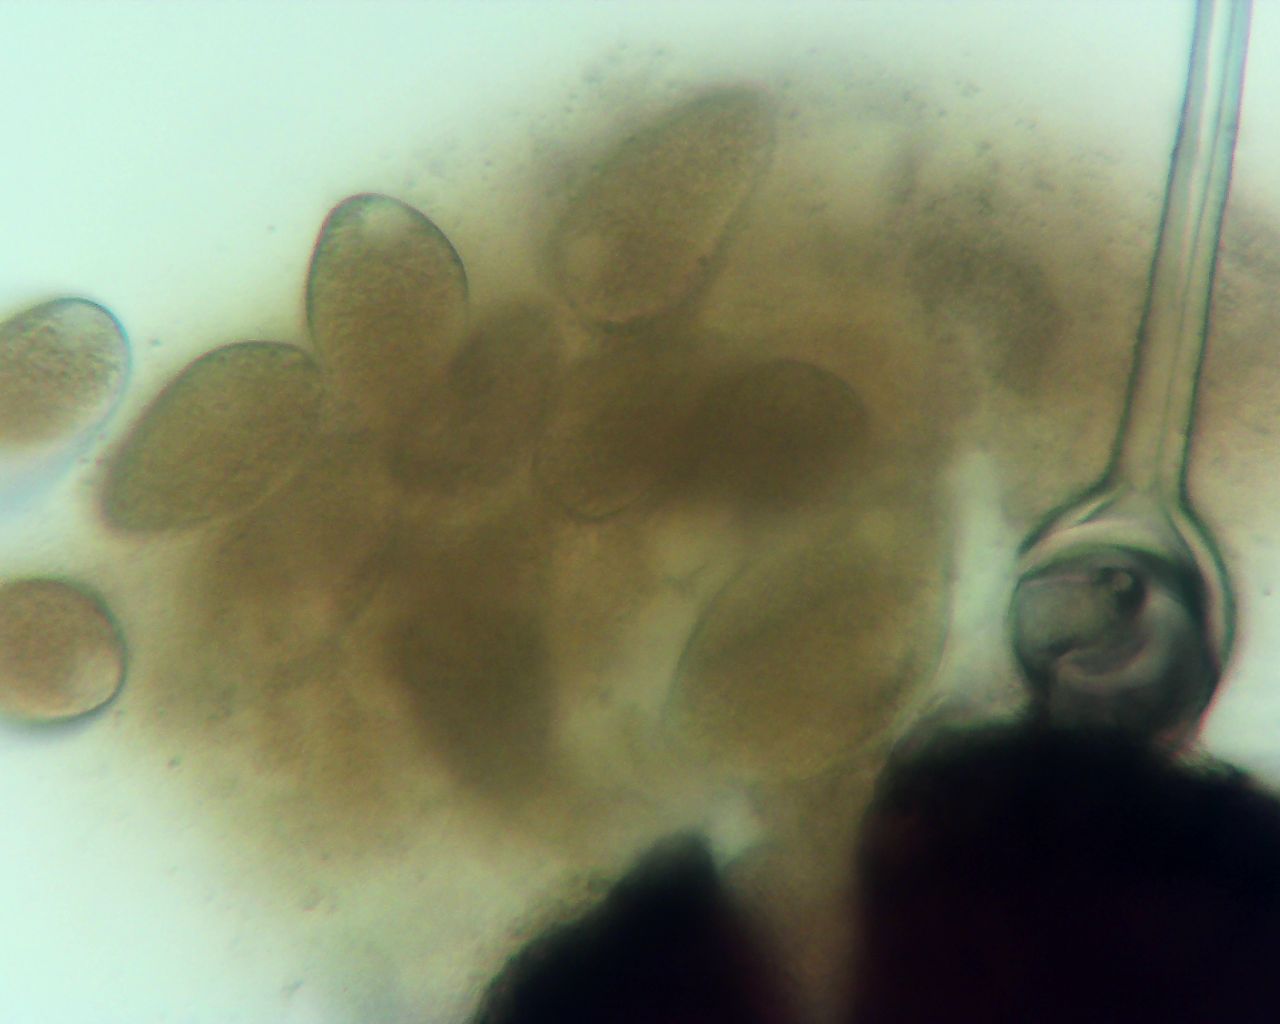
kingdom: Fungi
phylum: Ascomycota
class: Leotiomycetes
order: Helotiales
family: Erysiphaceae
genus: Phyllactinia
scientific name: Phyllactinia guttata
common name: hassel-meldug
